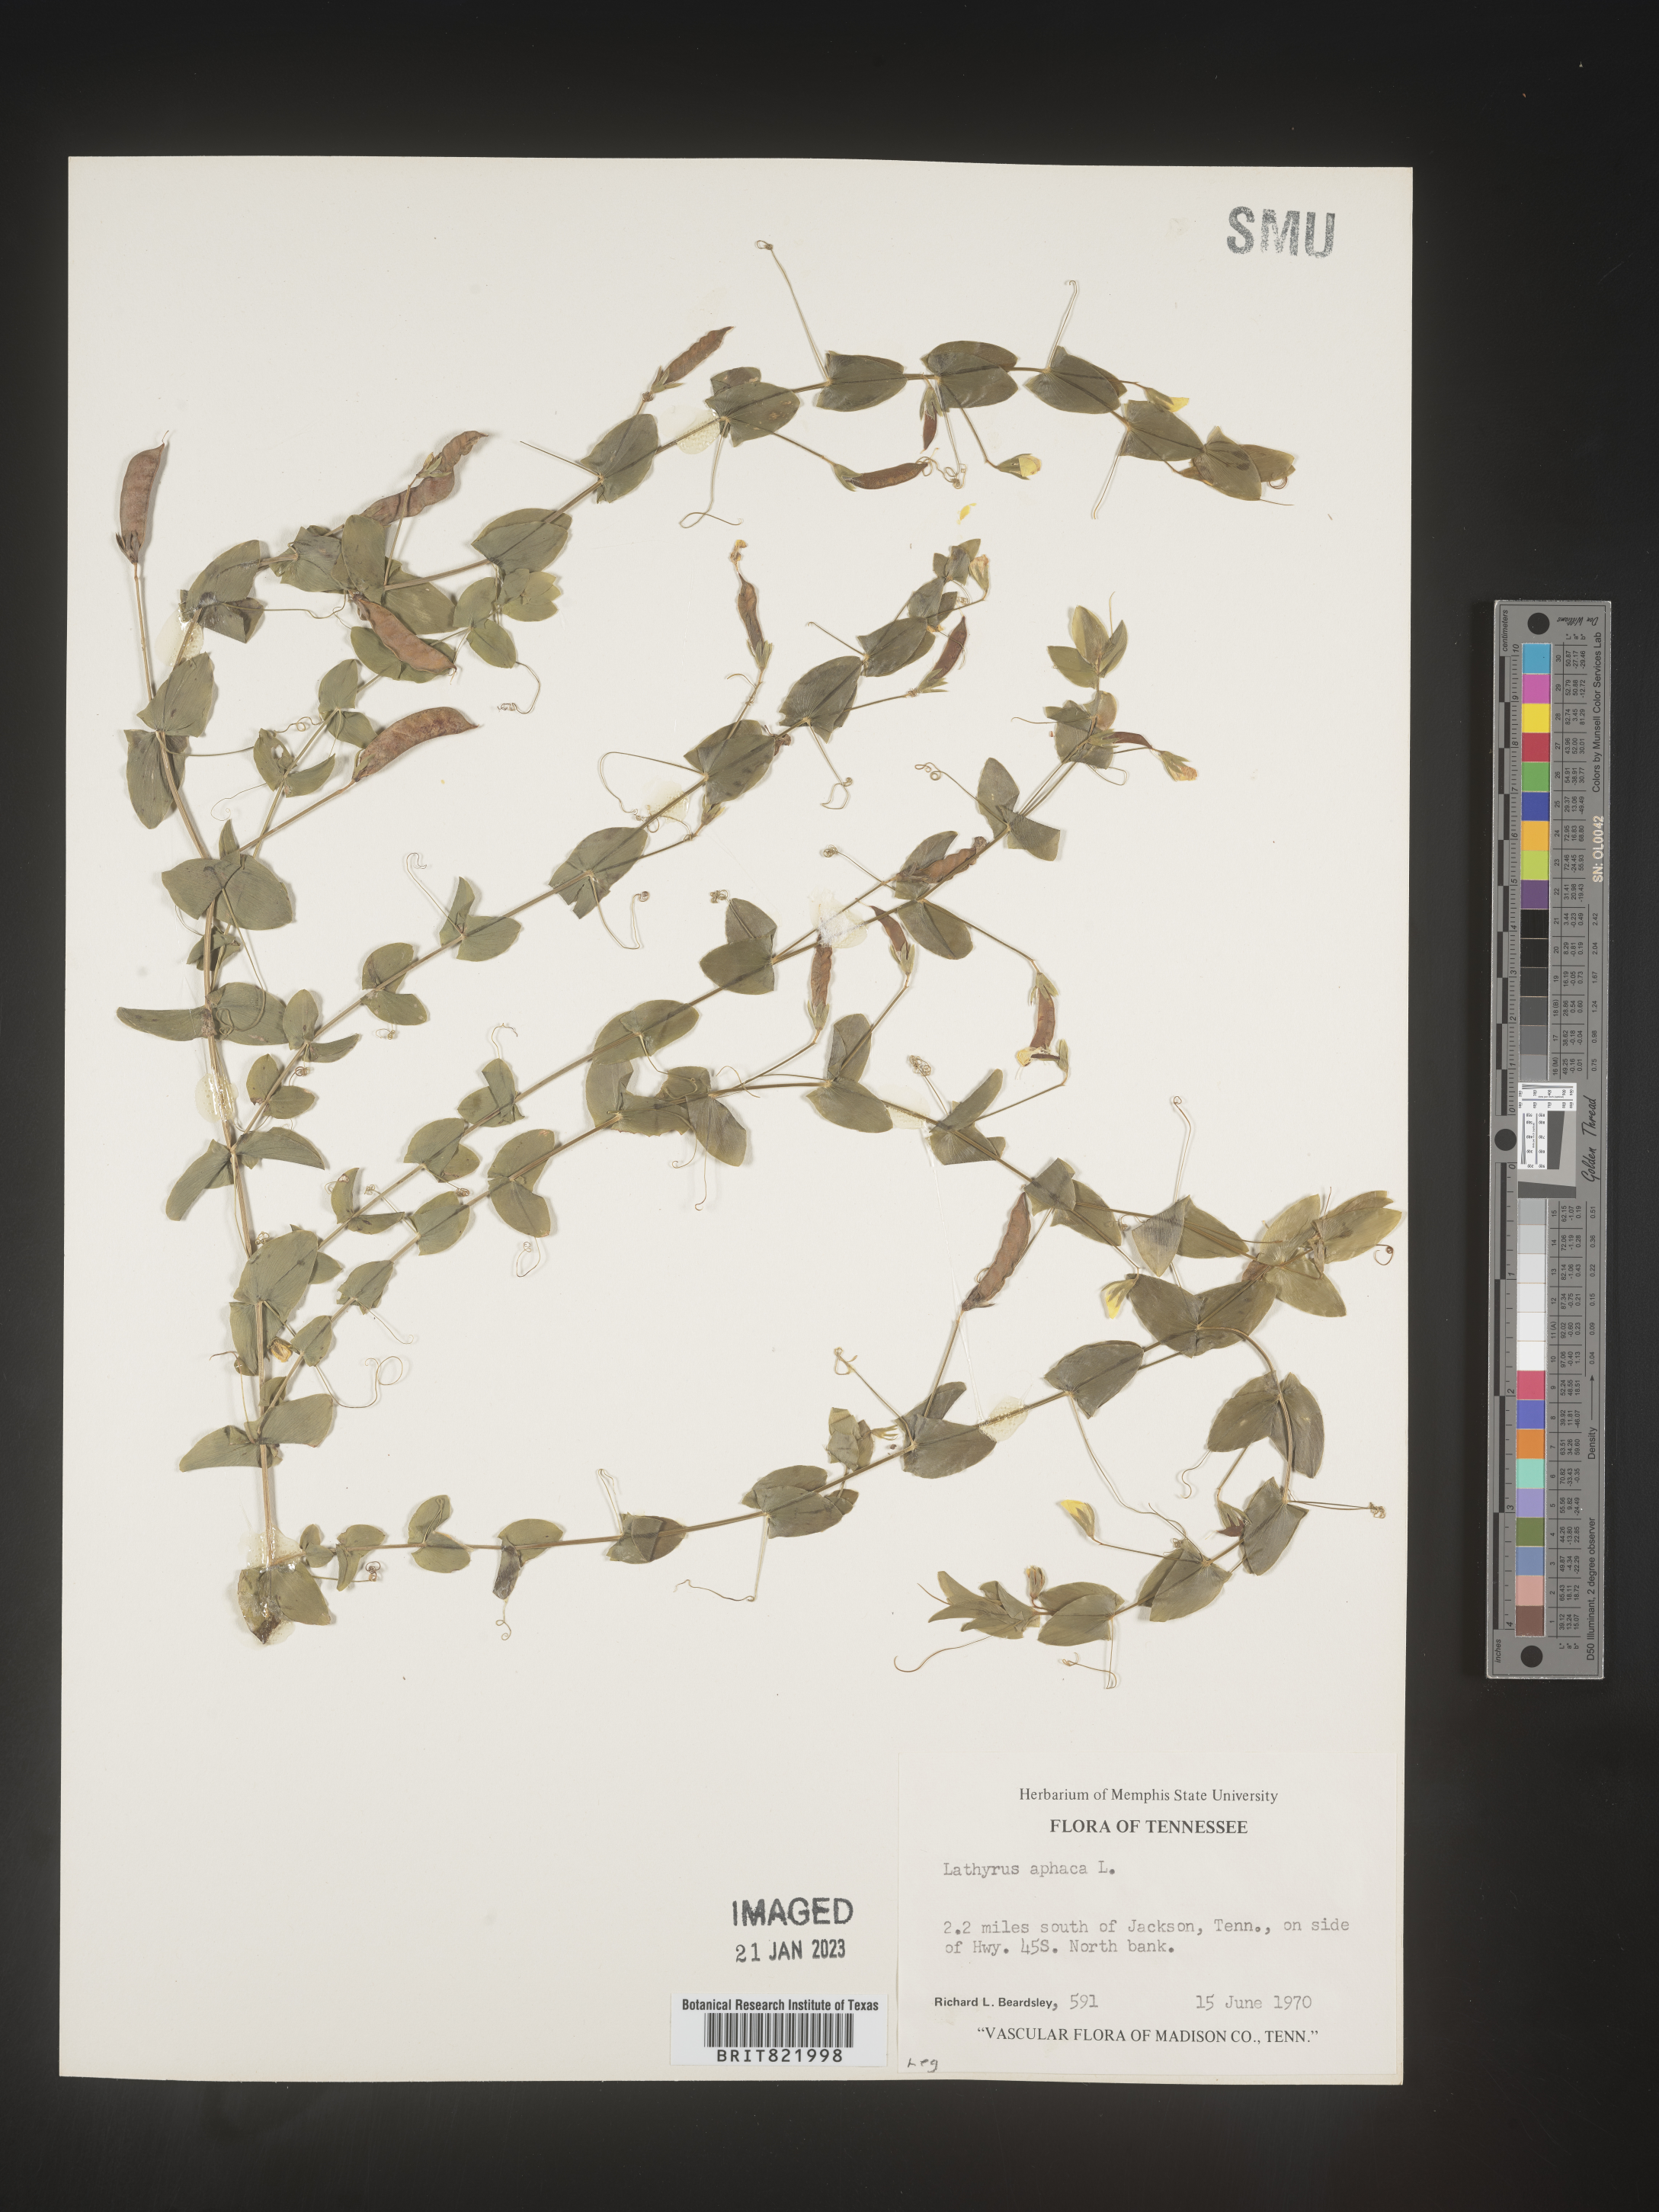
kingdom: Plantae
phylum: Tracheophyta
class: Magnoliopsida
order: Fabales
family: Fabaceae
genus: Lathyrus
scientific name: Lathyrus
